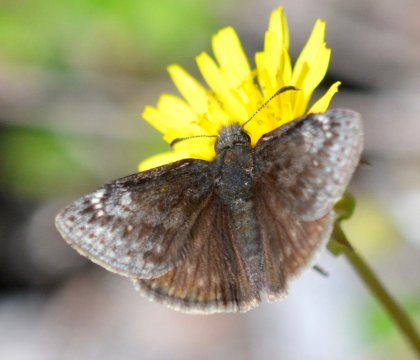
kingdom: Animalia
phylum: Arthropoda
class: Insecta
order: Lepidoptera
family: Hesperiidae
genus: Gesta
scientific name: Gesta
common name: Persius Duskywing
